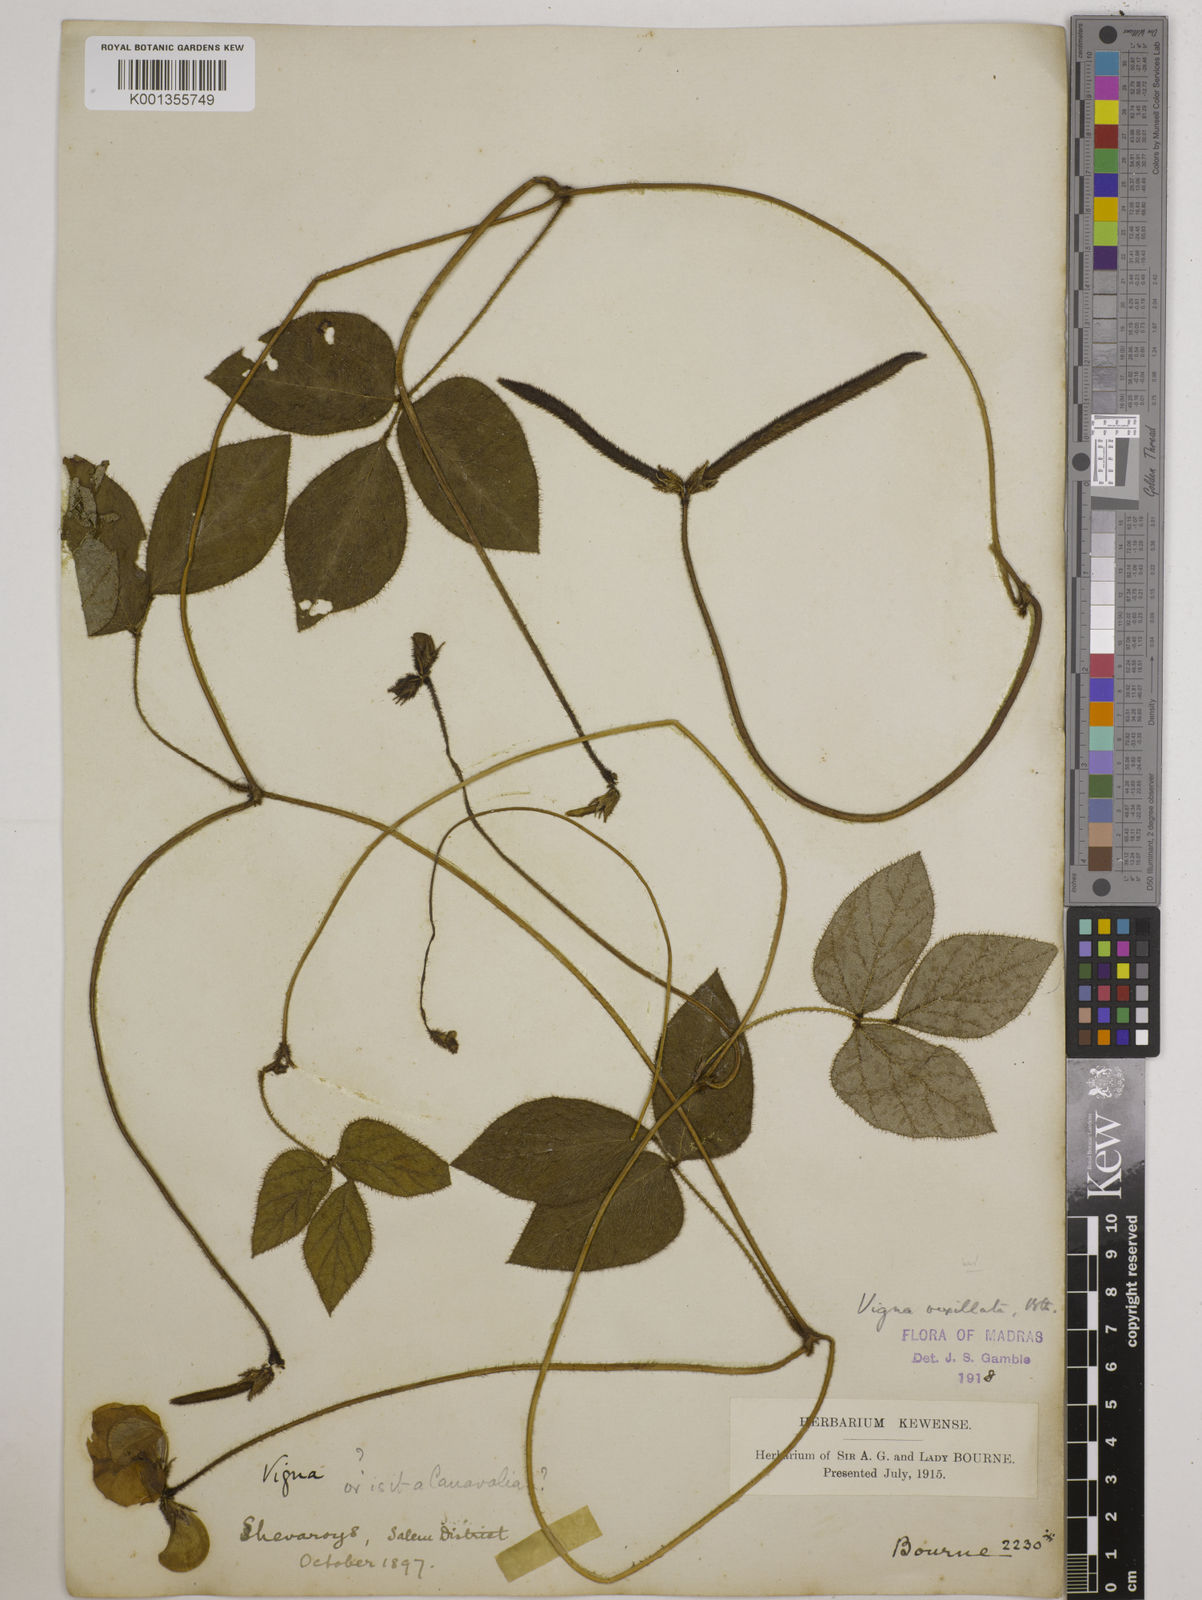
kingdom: Plantae
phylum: Tracheophyta
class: Magnoliopsida
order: Fabales
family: Fabaceae
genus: Vigna
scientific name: Vigna vexillata
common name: Zombi pea
